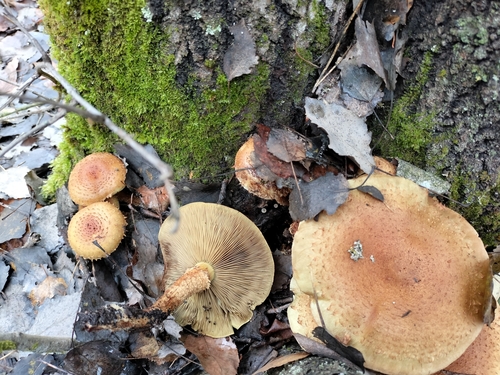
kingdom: Fungi
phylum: Basidiomycota
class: Agaricomycetes
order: Agaricales
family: Strophariaceae
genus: Pholiota
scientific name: Pholiota squarrosa
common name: Shaggy pholiota
